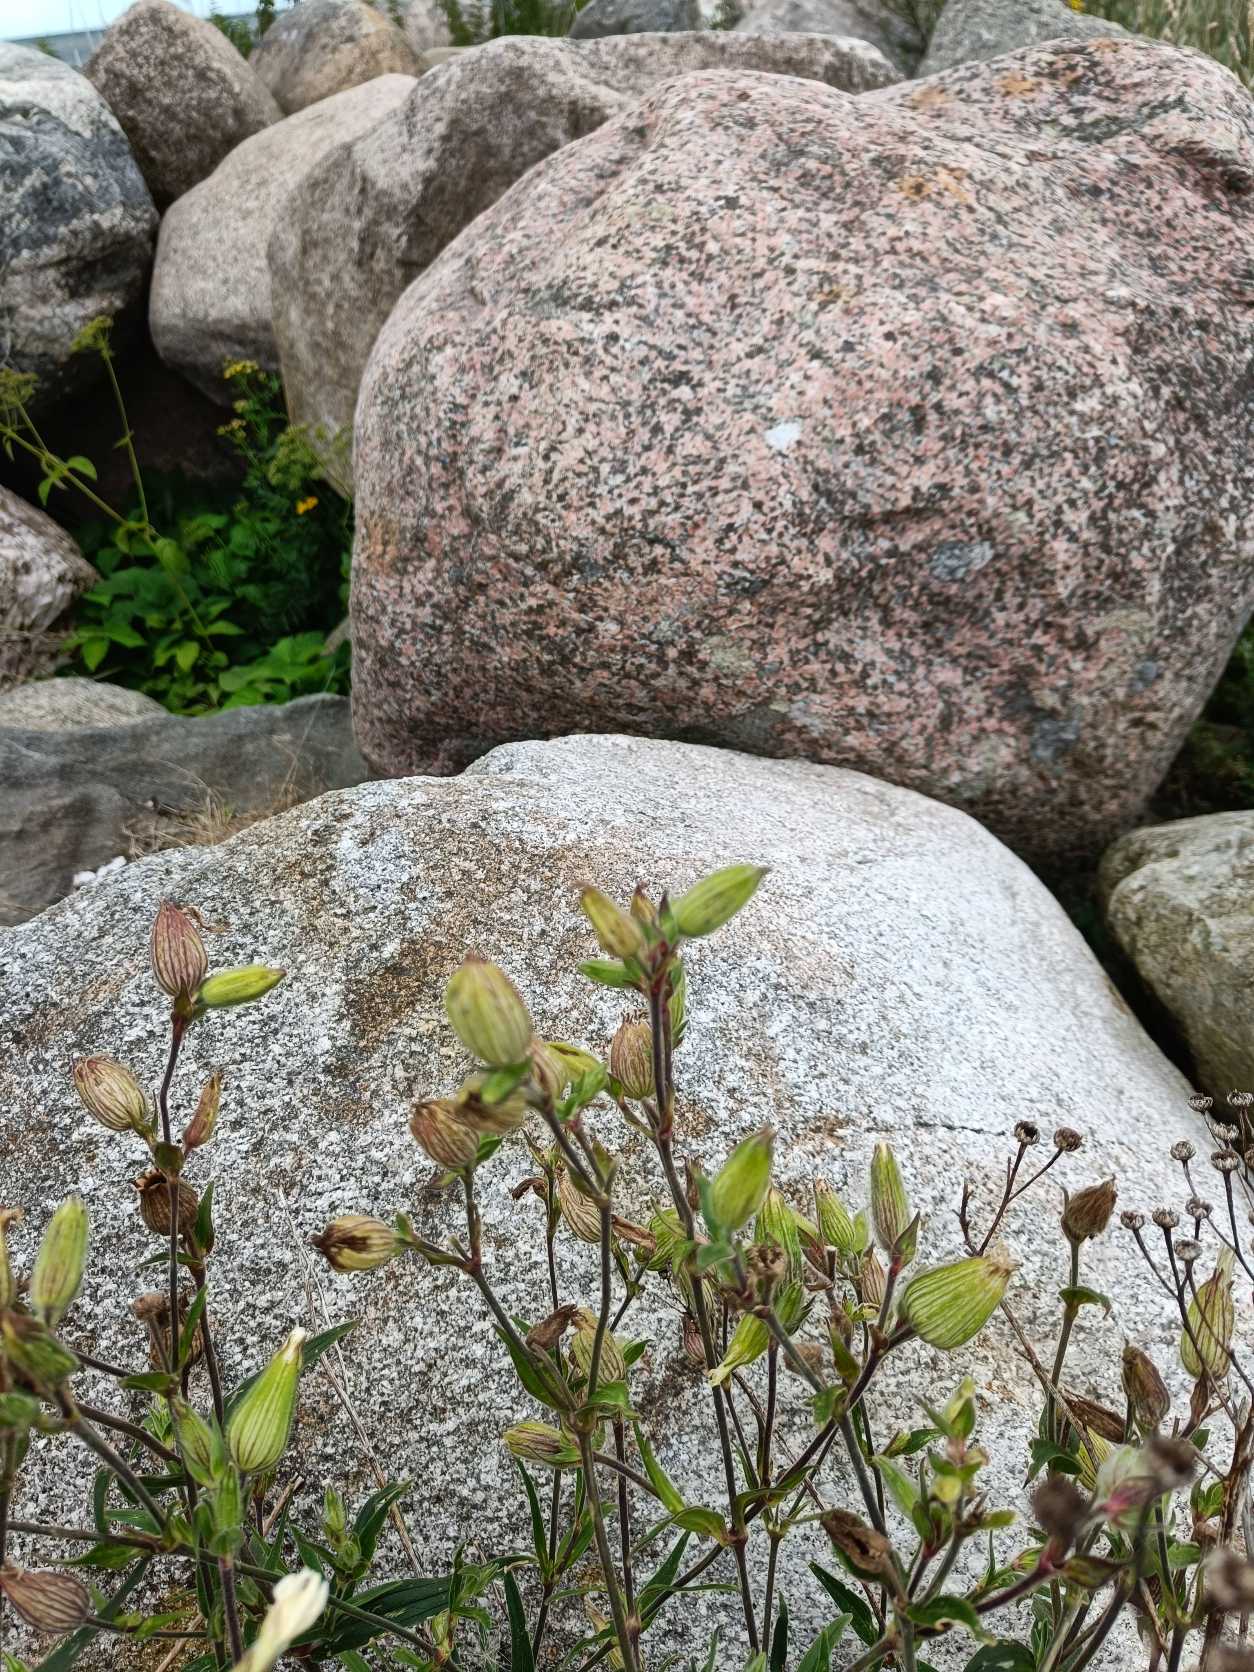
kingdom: Plantae
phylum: Tracheophyta
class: Magnoliopsida
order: Caryophyllales
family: Caryophyllaceae
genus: Silene
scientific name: Silene latifolia
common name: Aftenpragtstjerne
